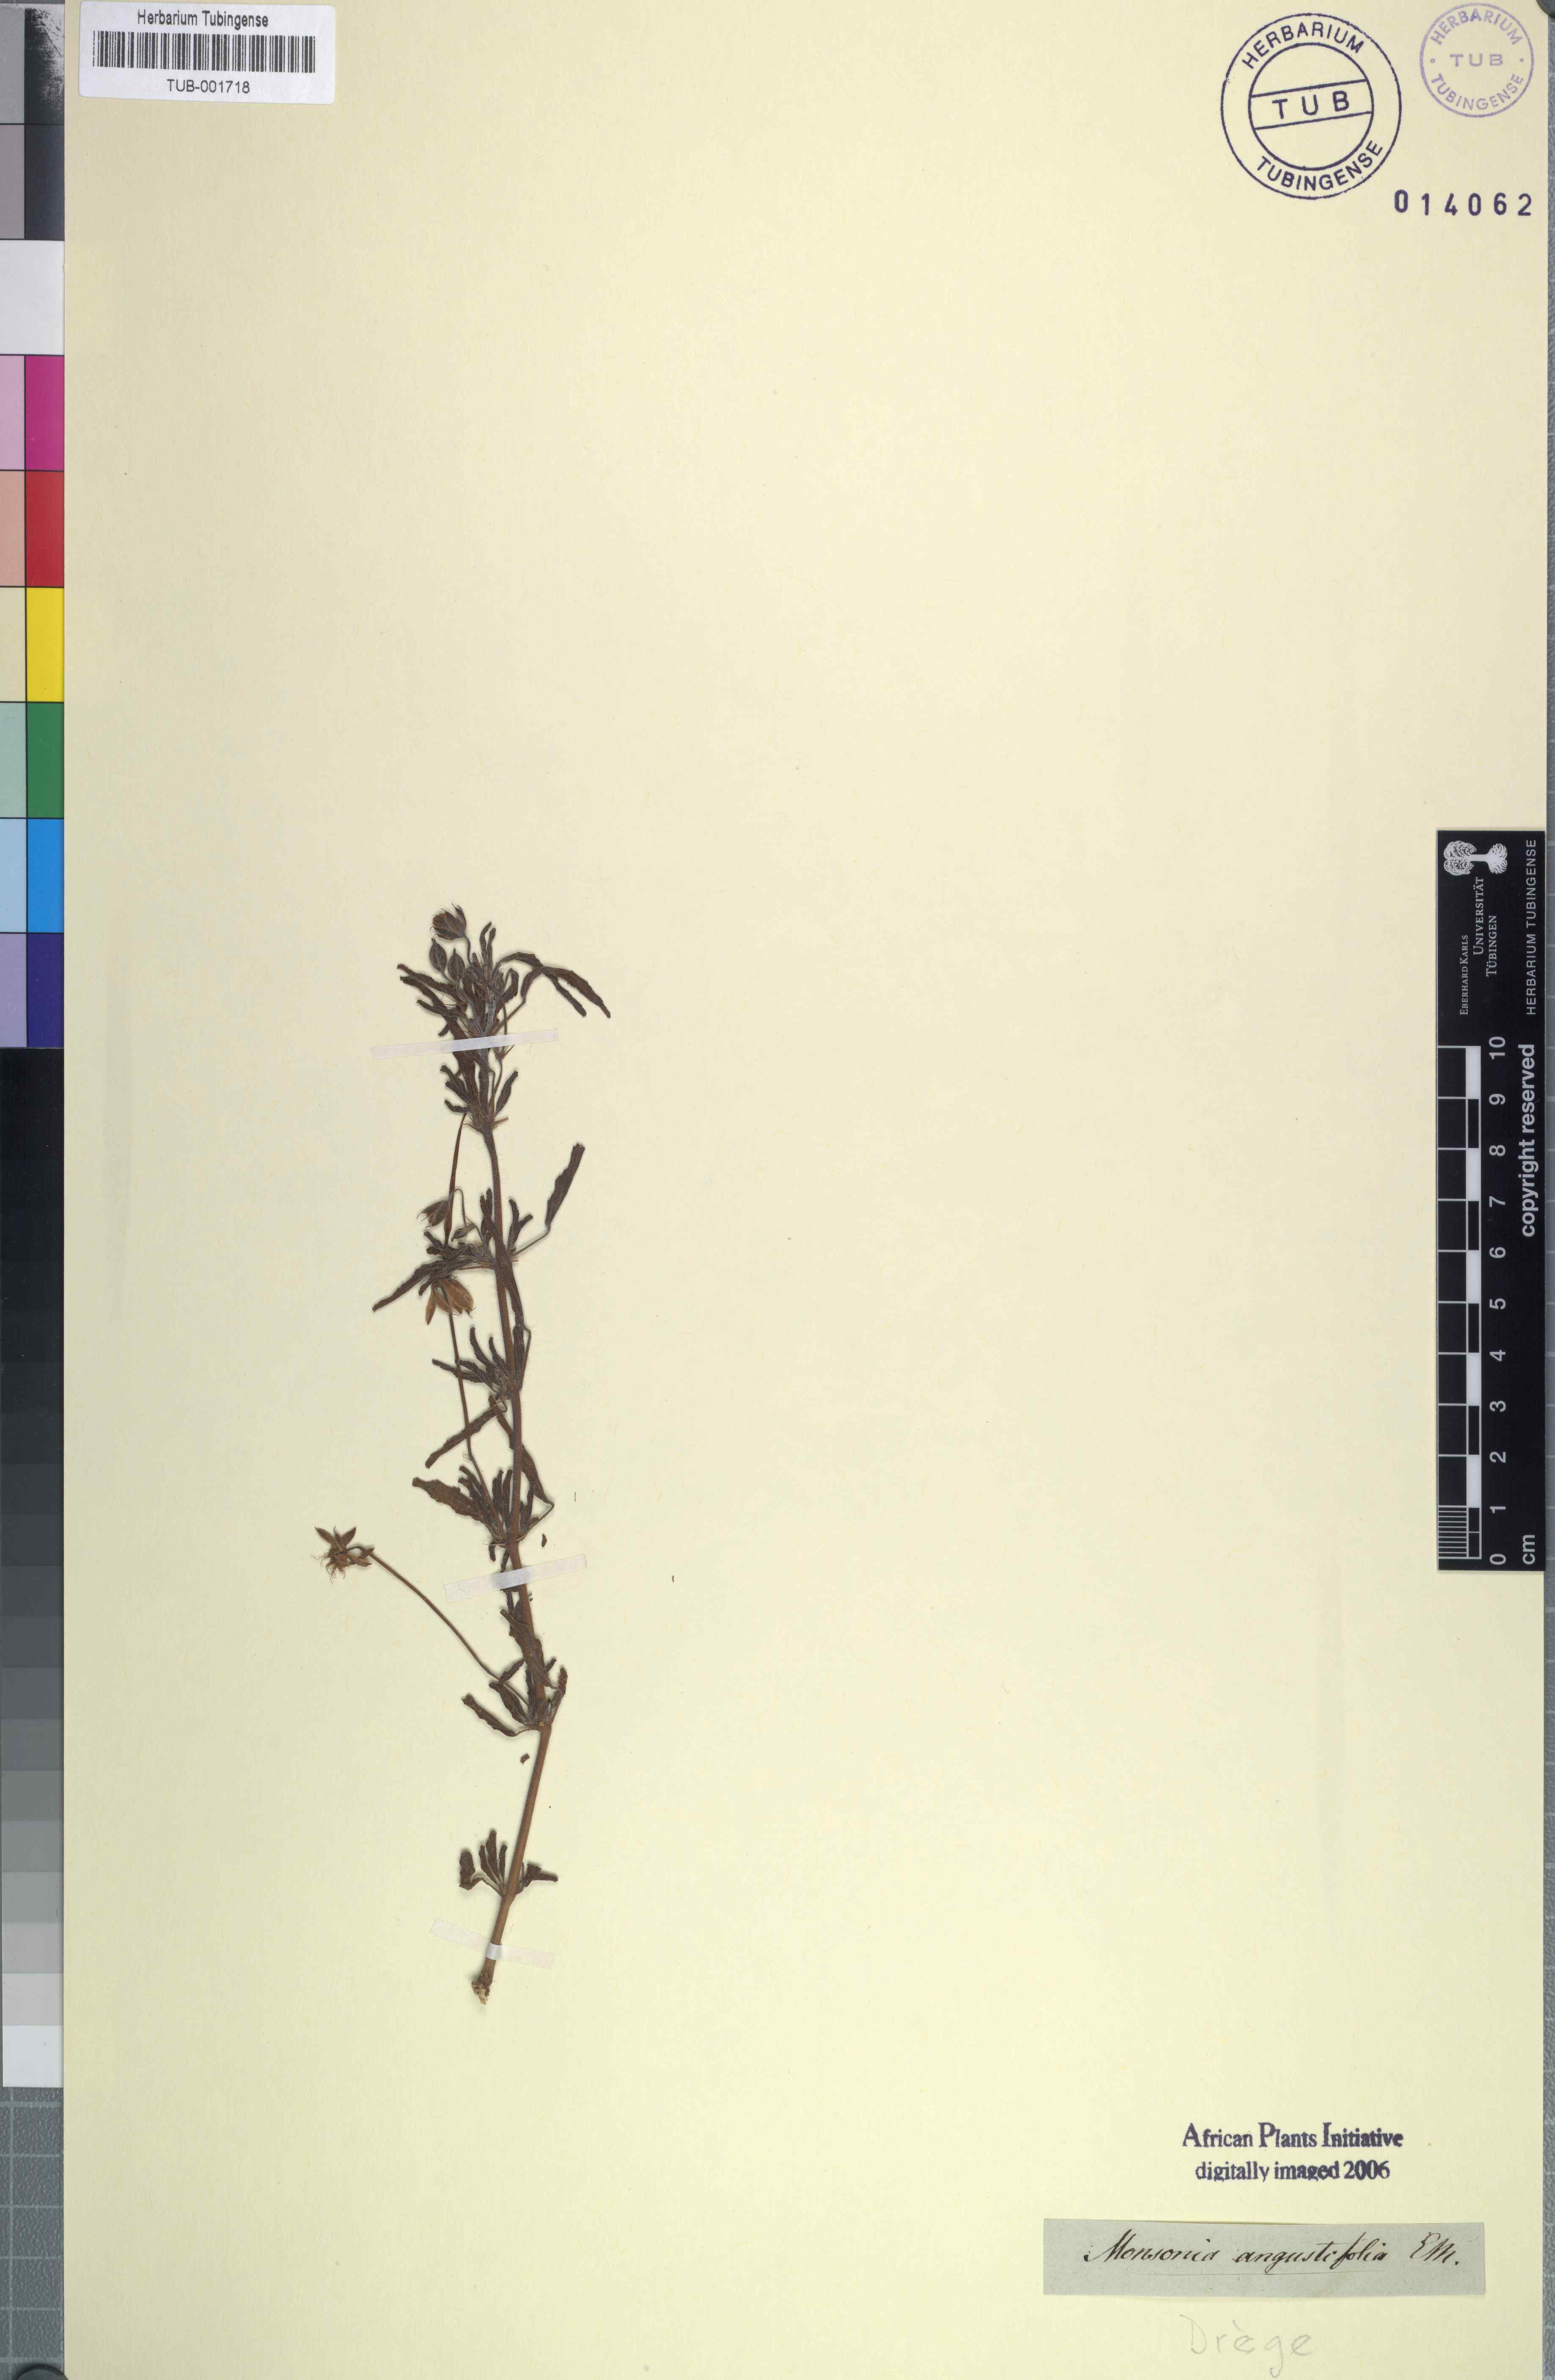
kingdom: Plantae
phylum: Tracheophyta
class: Magnoliopsida
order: Geraniales
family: Geraniaceae
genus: Monsonia
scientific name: Monsonia biflora
